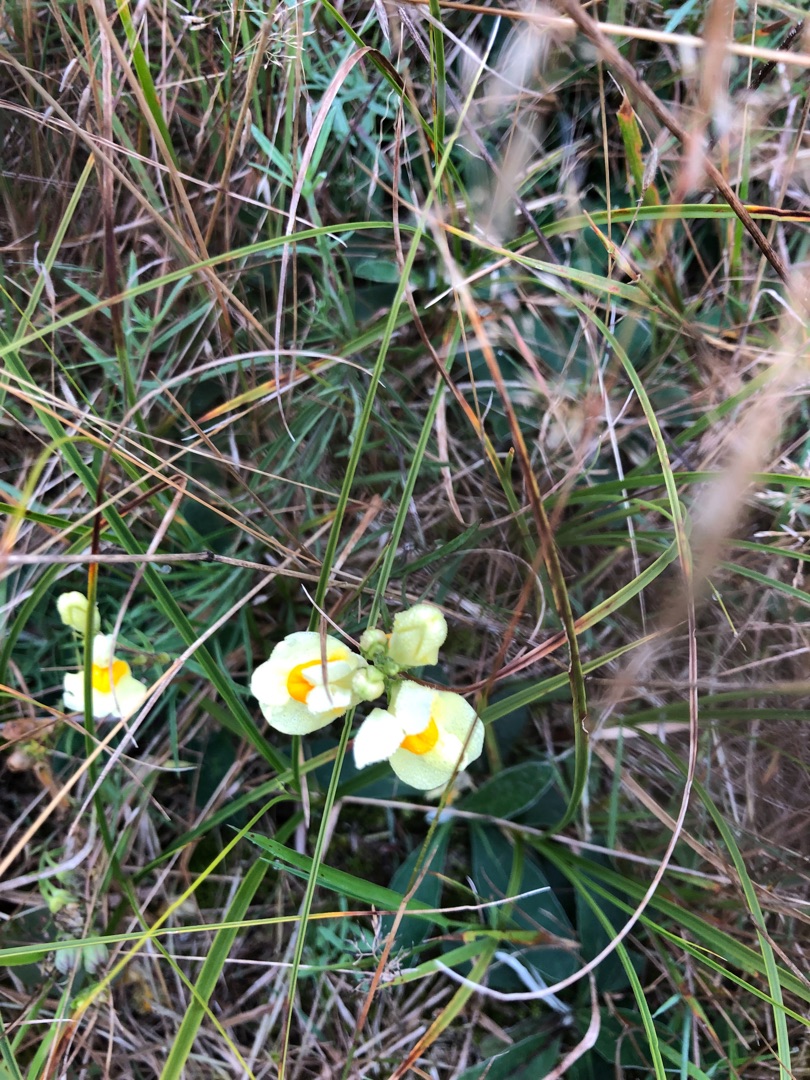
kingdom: Plantae
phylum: Tracheophyta
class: Magnoliopsida
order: Lamiales
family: Plantaginaceae
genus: Linaria
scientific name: Linaria vulgaris
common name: Almindelig torskemund
